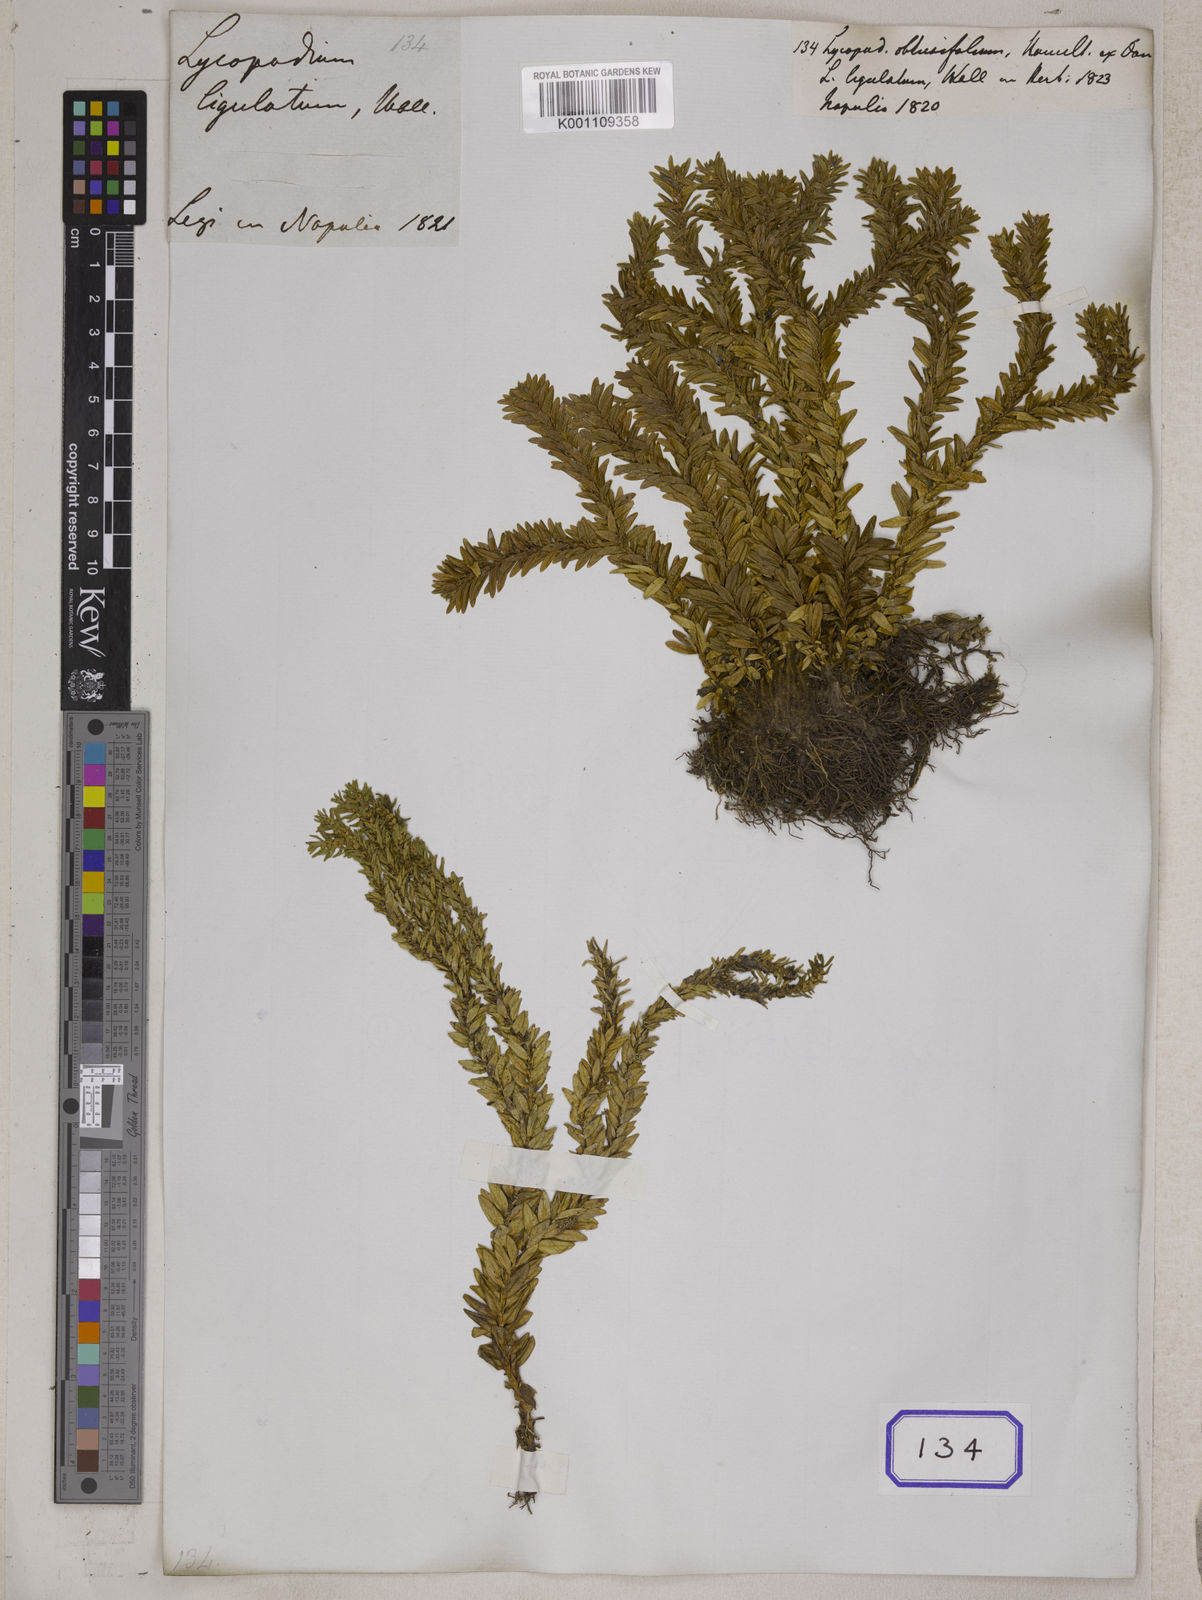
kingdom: Plantae
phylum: Tracheophyta
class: Lycopodiopsida
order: Lycopodiales
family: Lycopodiaceae
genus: Phlegmariurus
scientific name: Phlegmariurus hamiltonii
